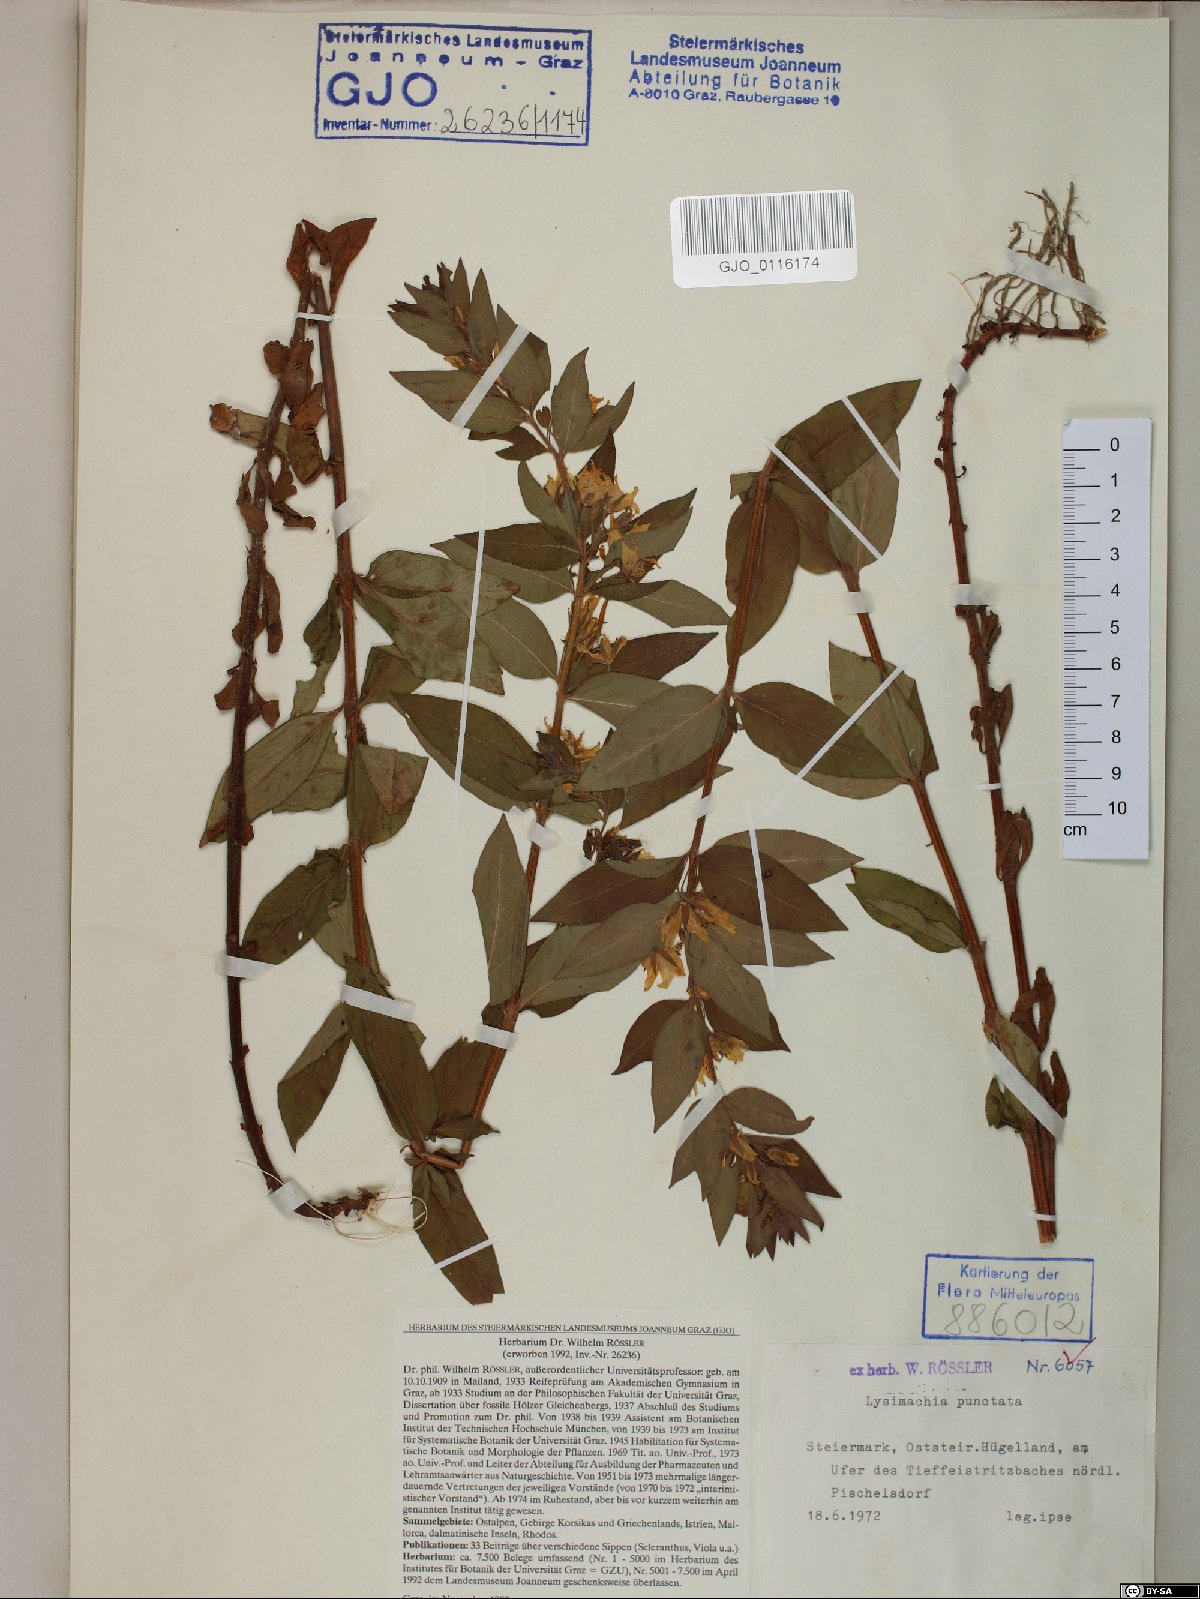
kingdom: Plantae
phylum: Tracheophyta
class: Magnoliopsida
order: Ericales
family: Primulaceae
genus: Lysimachia
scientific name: Lysimachia punctata
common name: Dotted loosestrife
